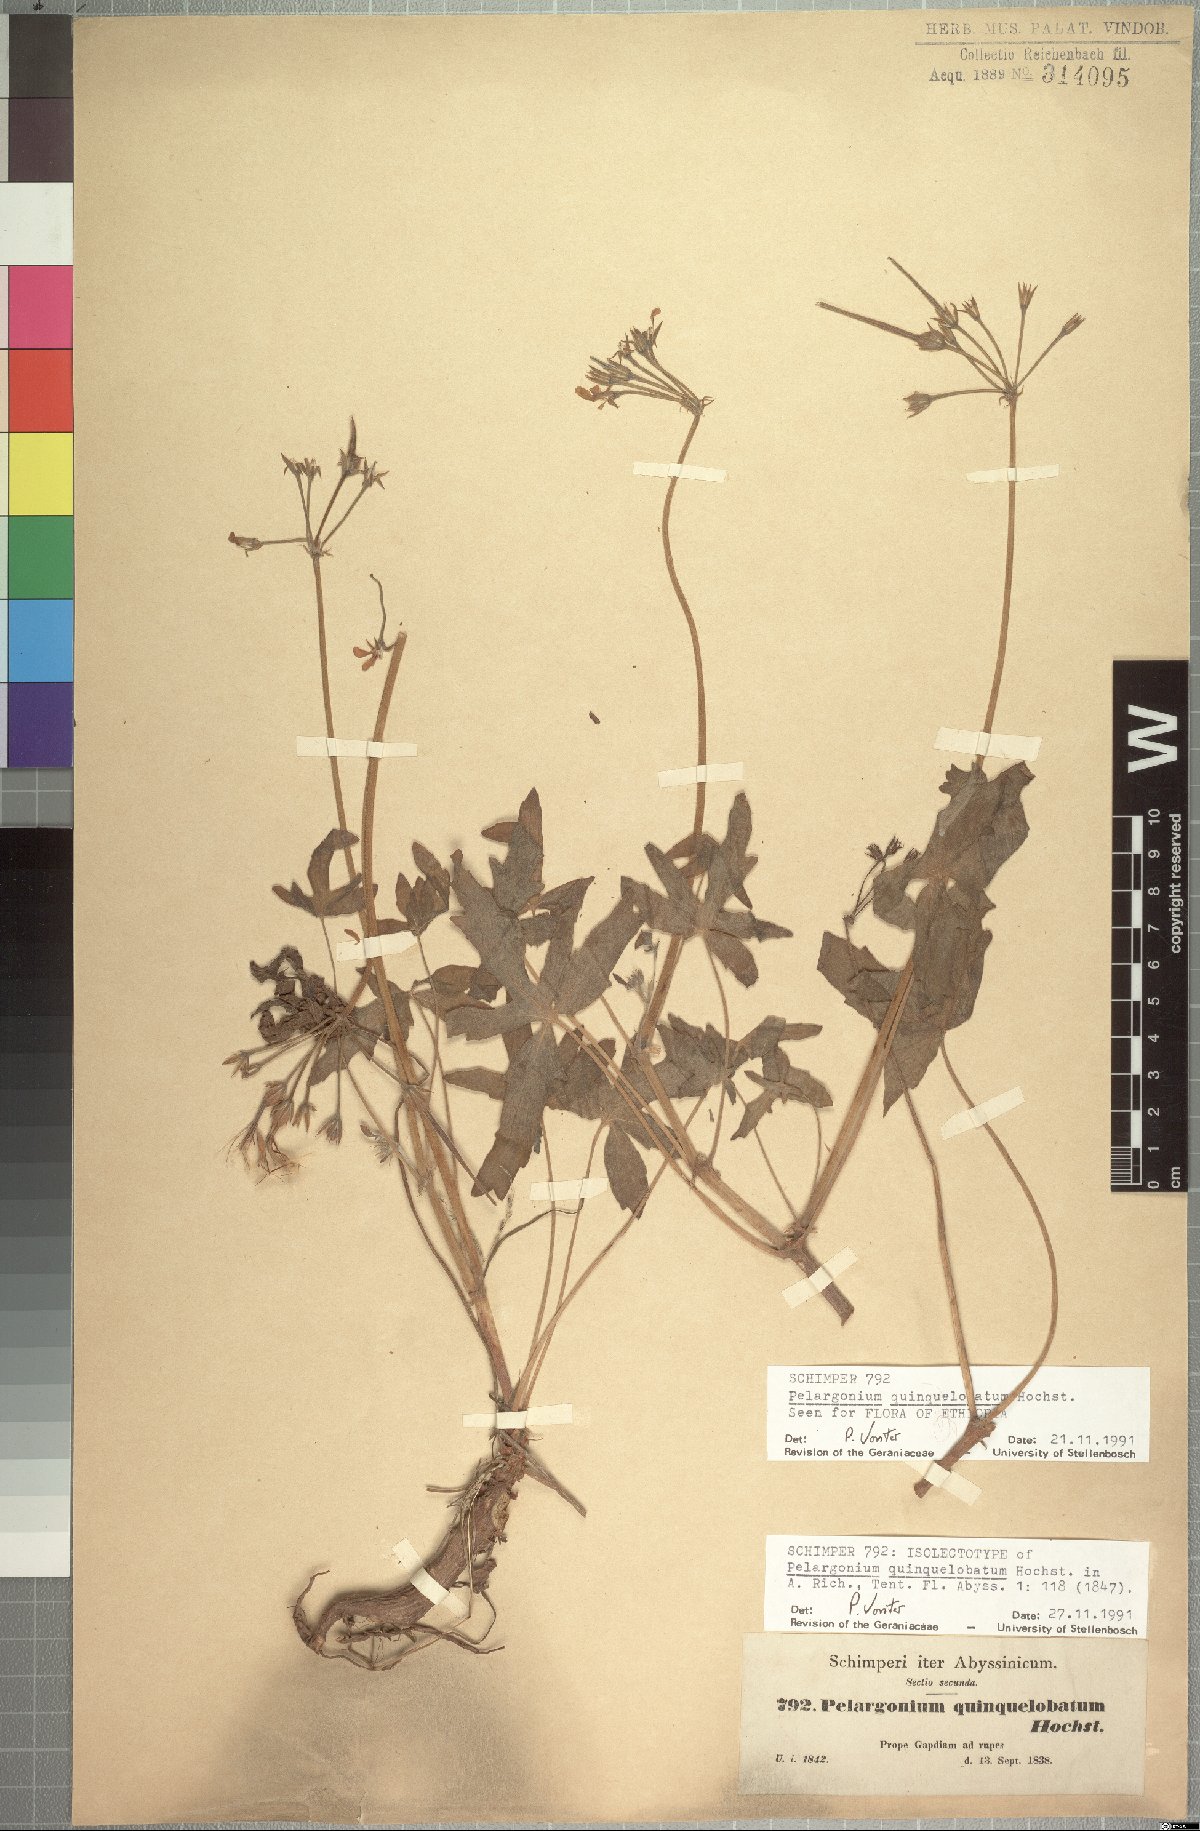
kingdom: Plantae
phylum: Tracheophyta
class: Magnoliopsida
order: Geraniales
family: Geraniaceae
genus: Pelargonium
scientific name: Pelargonium quinquelobatum
